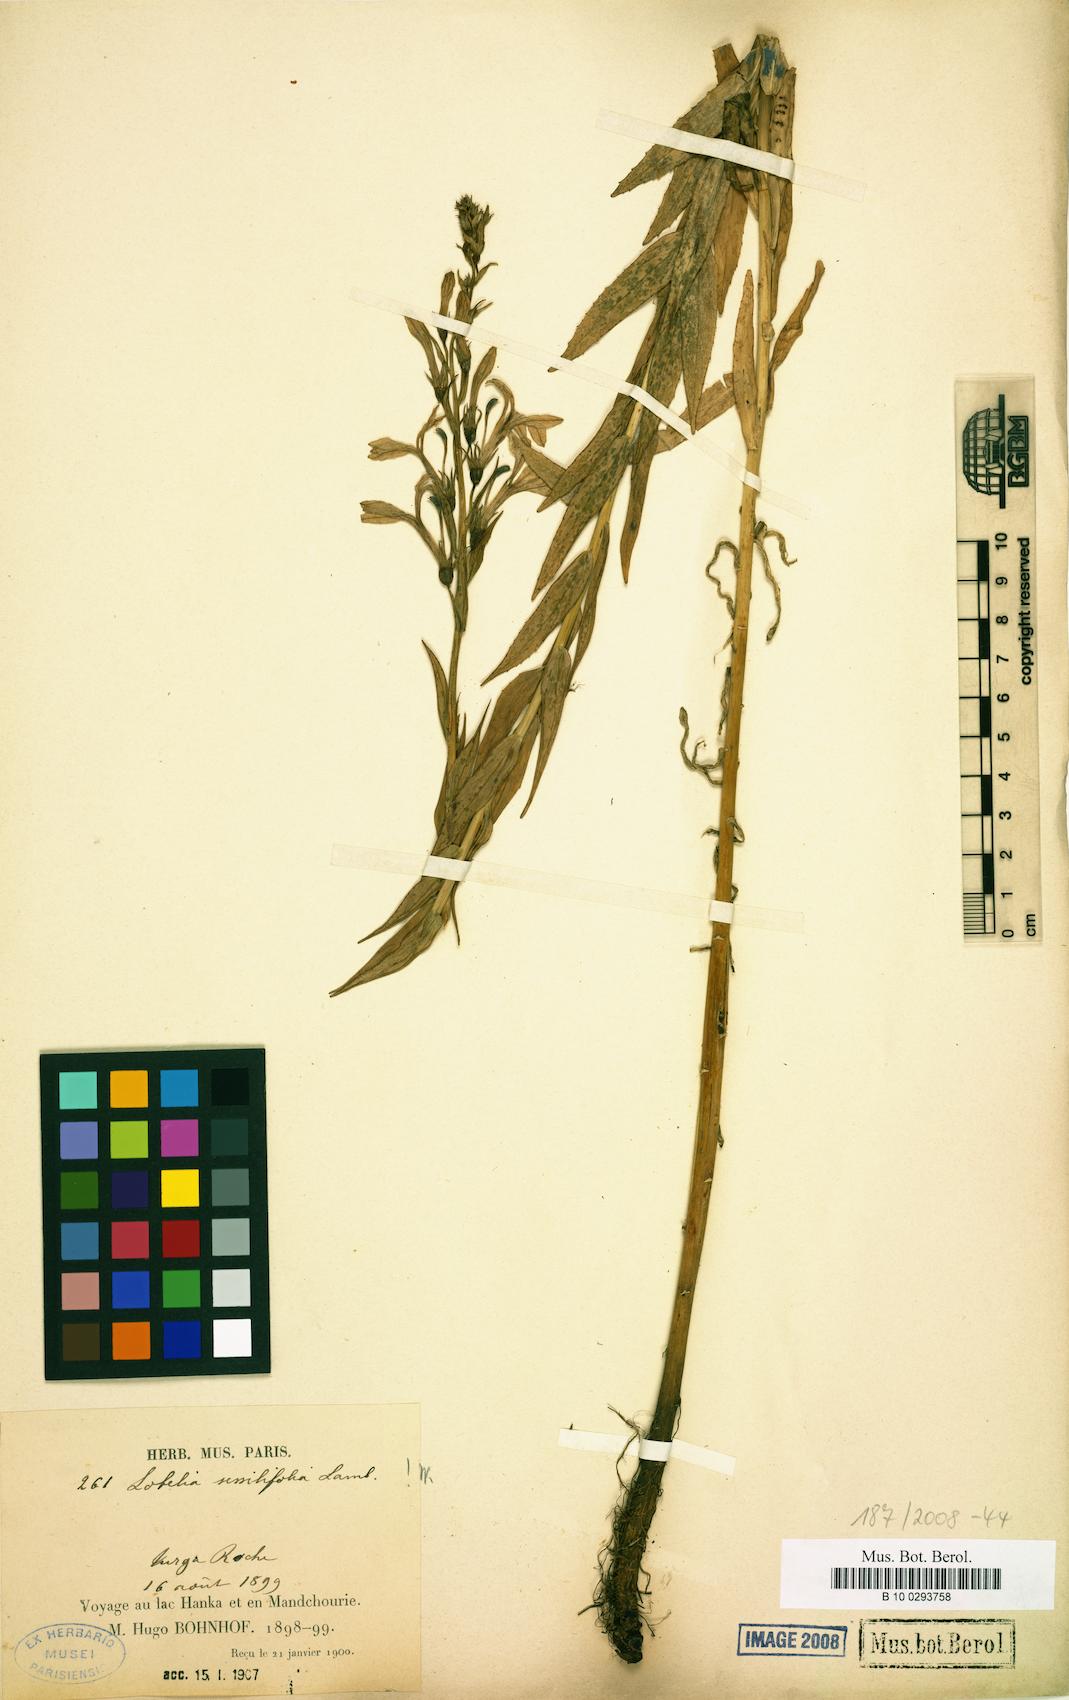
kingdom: Plantae
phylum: Tracheophyta
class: Magnoliopsida
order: Asterales
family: Campanulaceae
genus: Lobelia
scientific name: Lobelia sessilifolia
